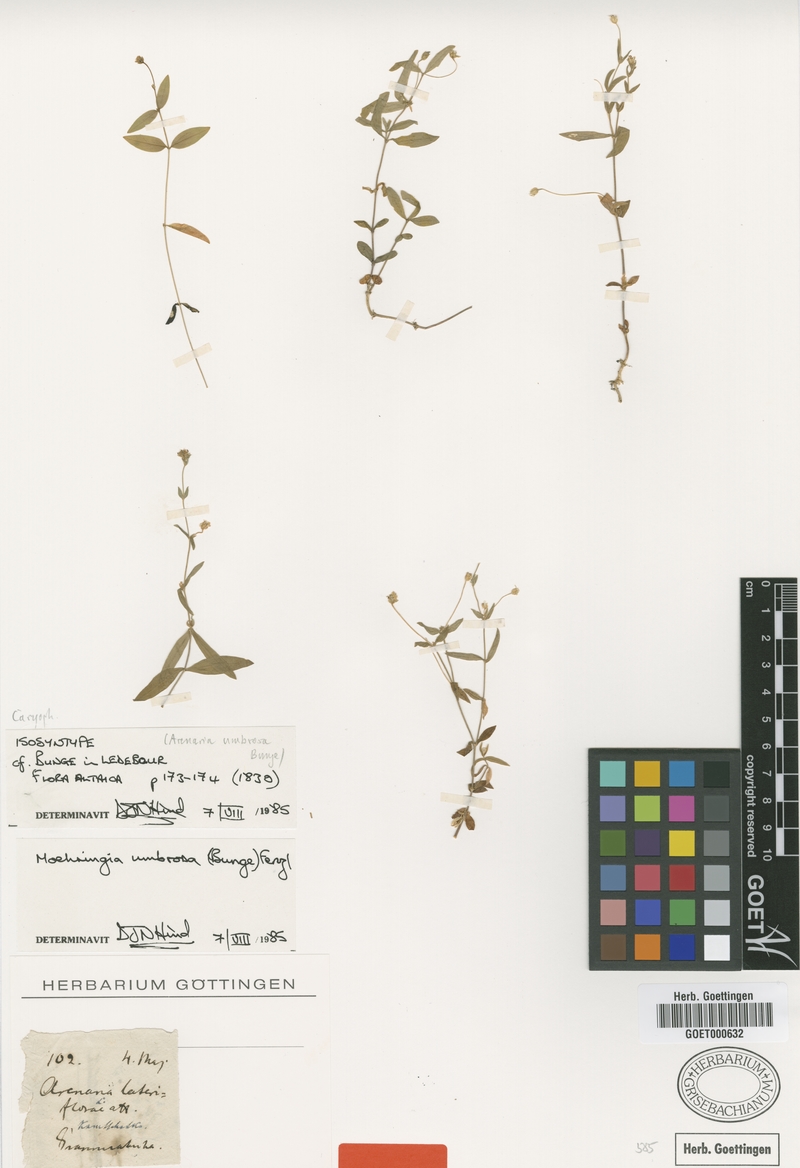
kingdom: Plantae
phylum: Tracheophyta
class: Magnoliopsida
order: Caryophyllales
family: Caryophyllaceae
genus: Moehringia
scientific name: Moehringia umbrosa
